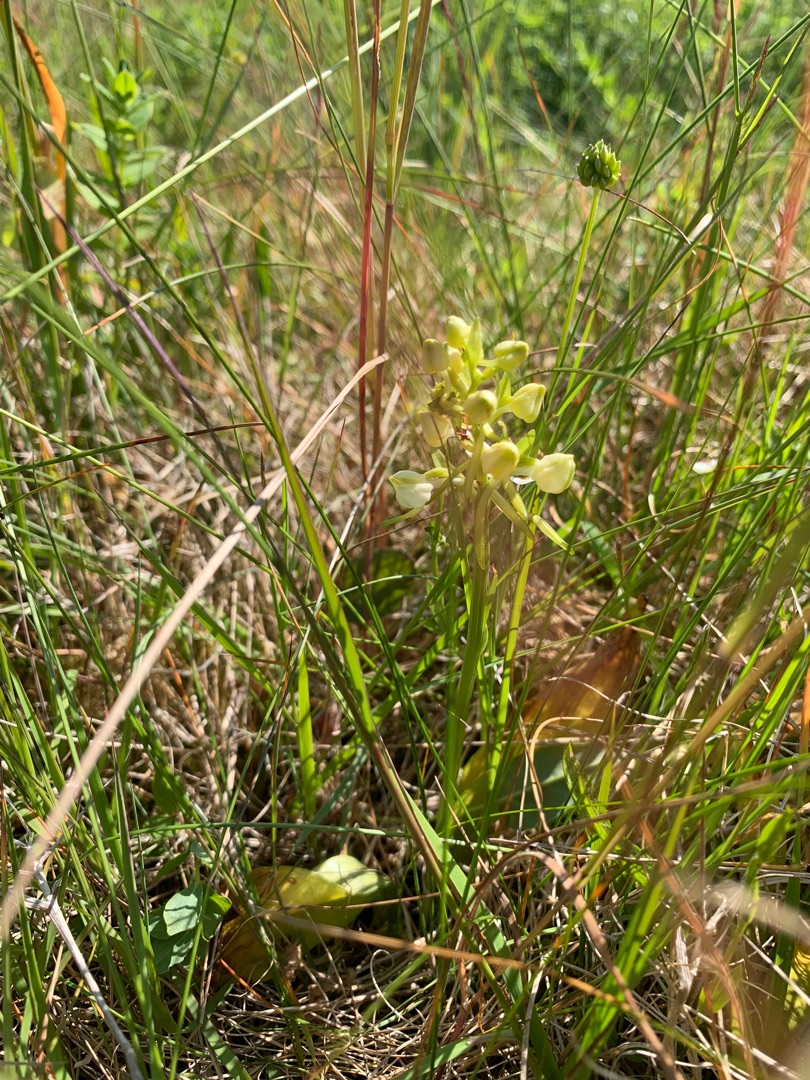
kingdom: Plantae
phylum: Tracheophyta
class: Liliopsida
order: Asparagales
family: Orchidaceae
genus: Platanthera
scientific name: Platanthera chlorantha
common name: Skov-gøgelilje
